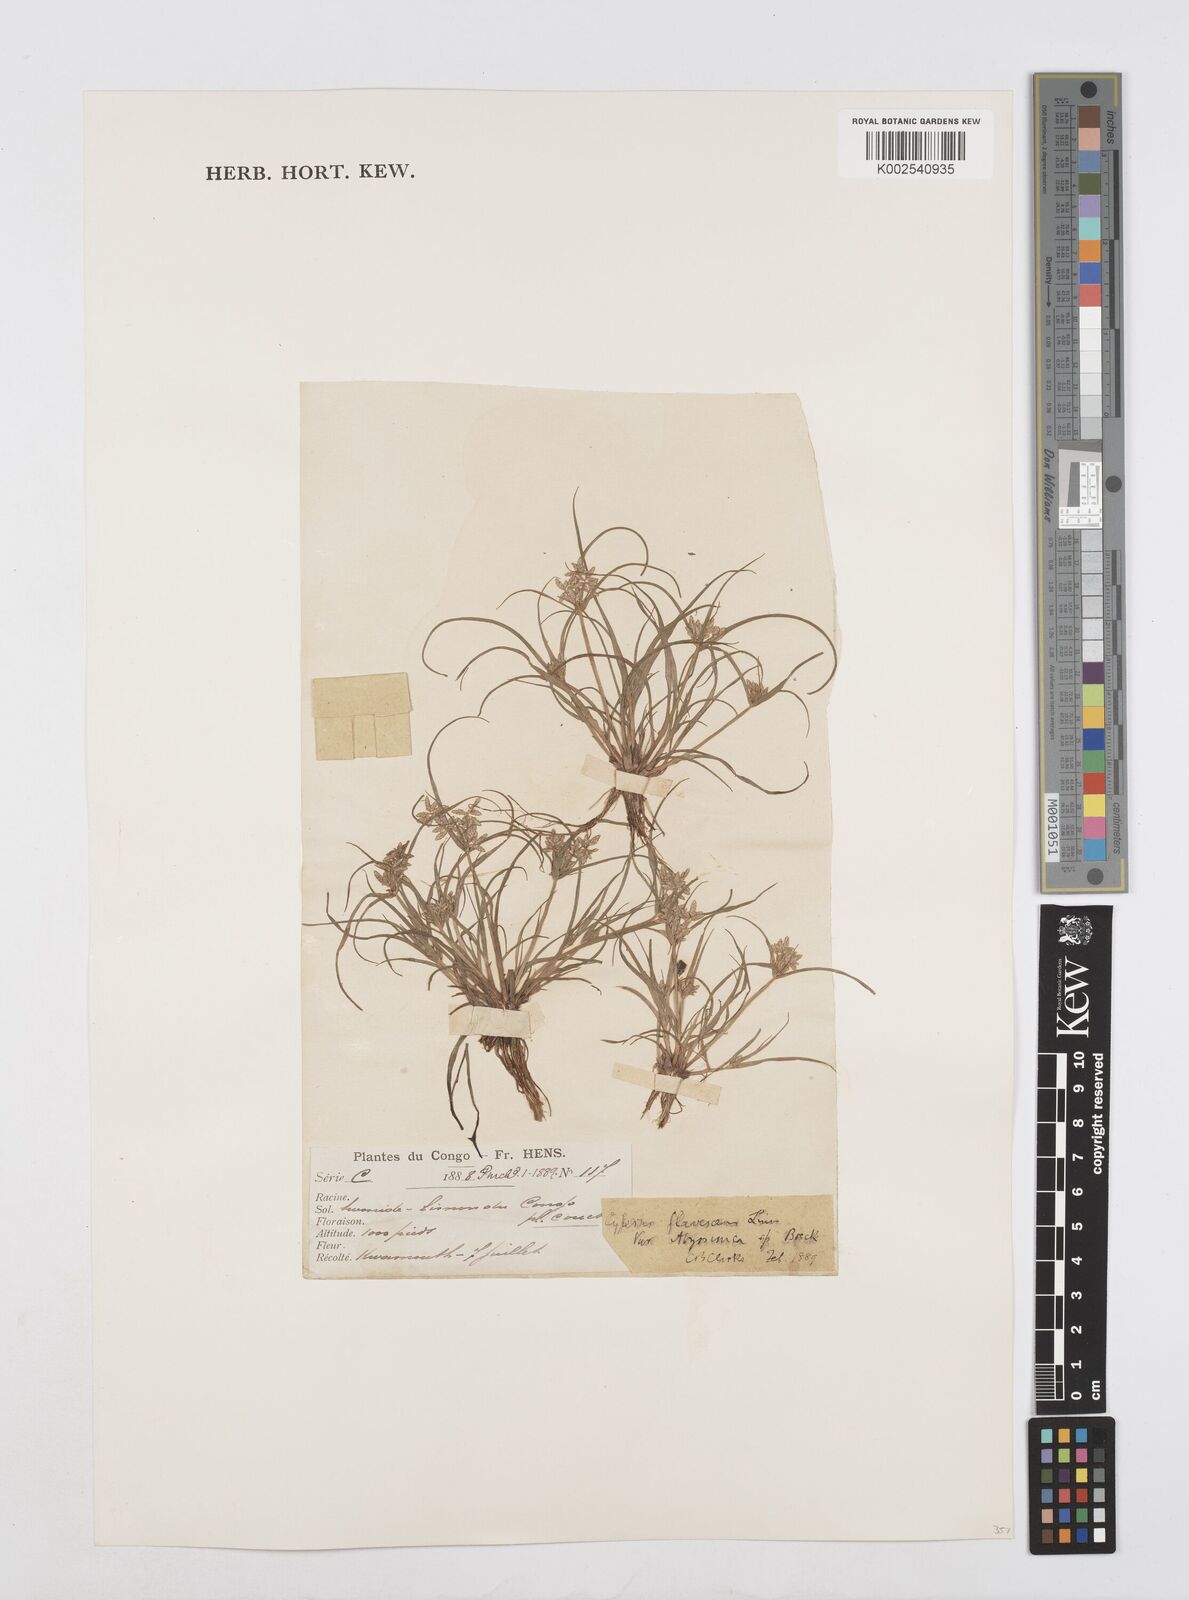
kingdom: Plantae
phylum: Tracheophyta
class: Liliopsida
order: Poales
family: Cyperaceae
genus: Cyperus
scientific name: Cyperus flavescens
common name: Yellow galingale
